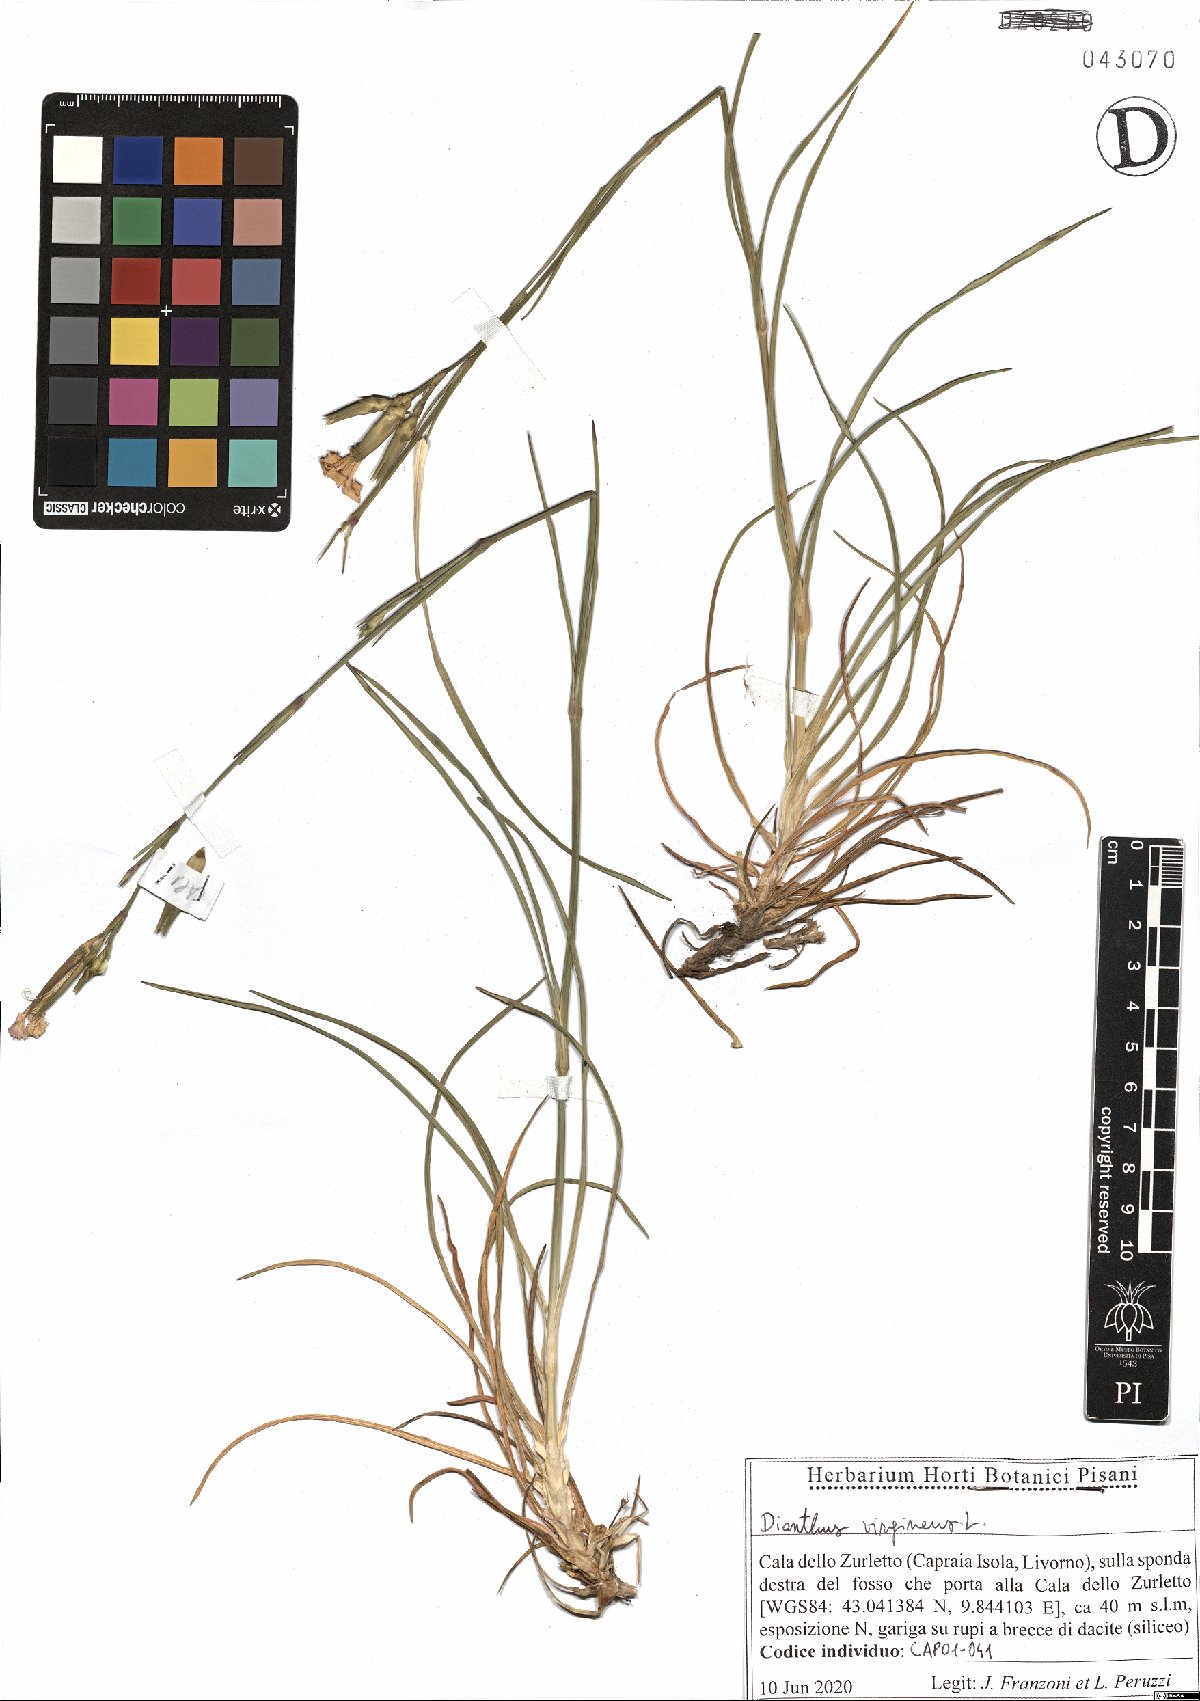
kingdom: Plantae
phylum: Tracheophyta
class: Magnoliopsida
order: Caryophyllales
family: Caryophyllaceae
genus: Dianthus
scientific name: Dianthus virgineus
